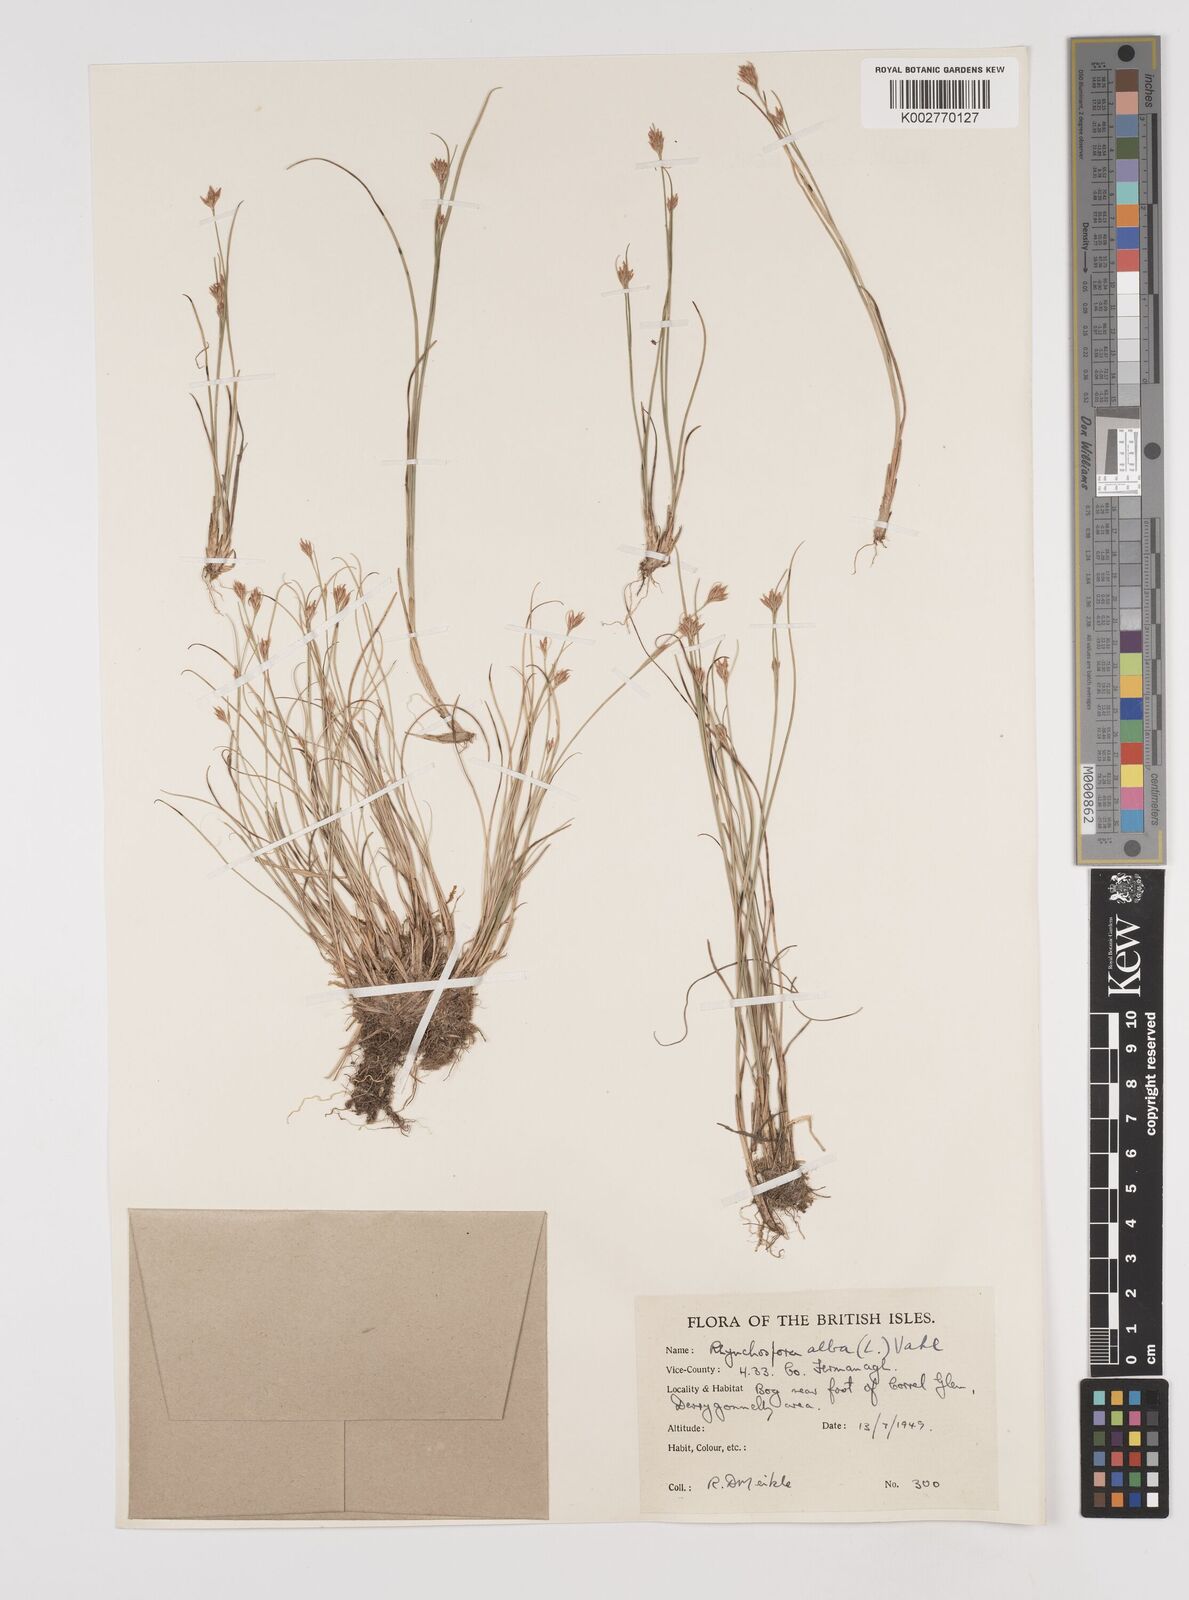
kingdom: Plantae
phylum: Tracheophyta
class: Liliopsida
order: Poales
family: Cyperaceae
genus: Rhynchospora
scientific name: Rhynchospora alba
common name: White beak-sedge
